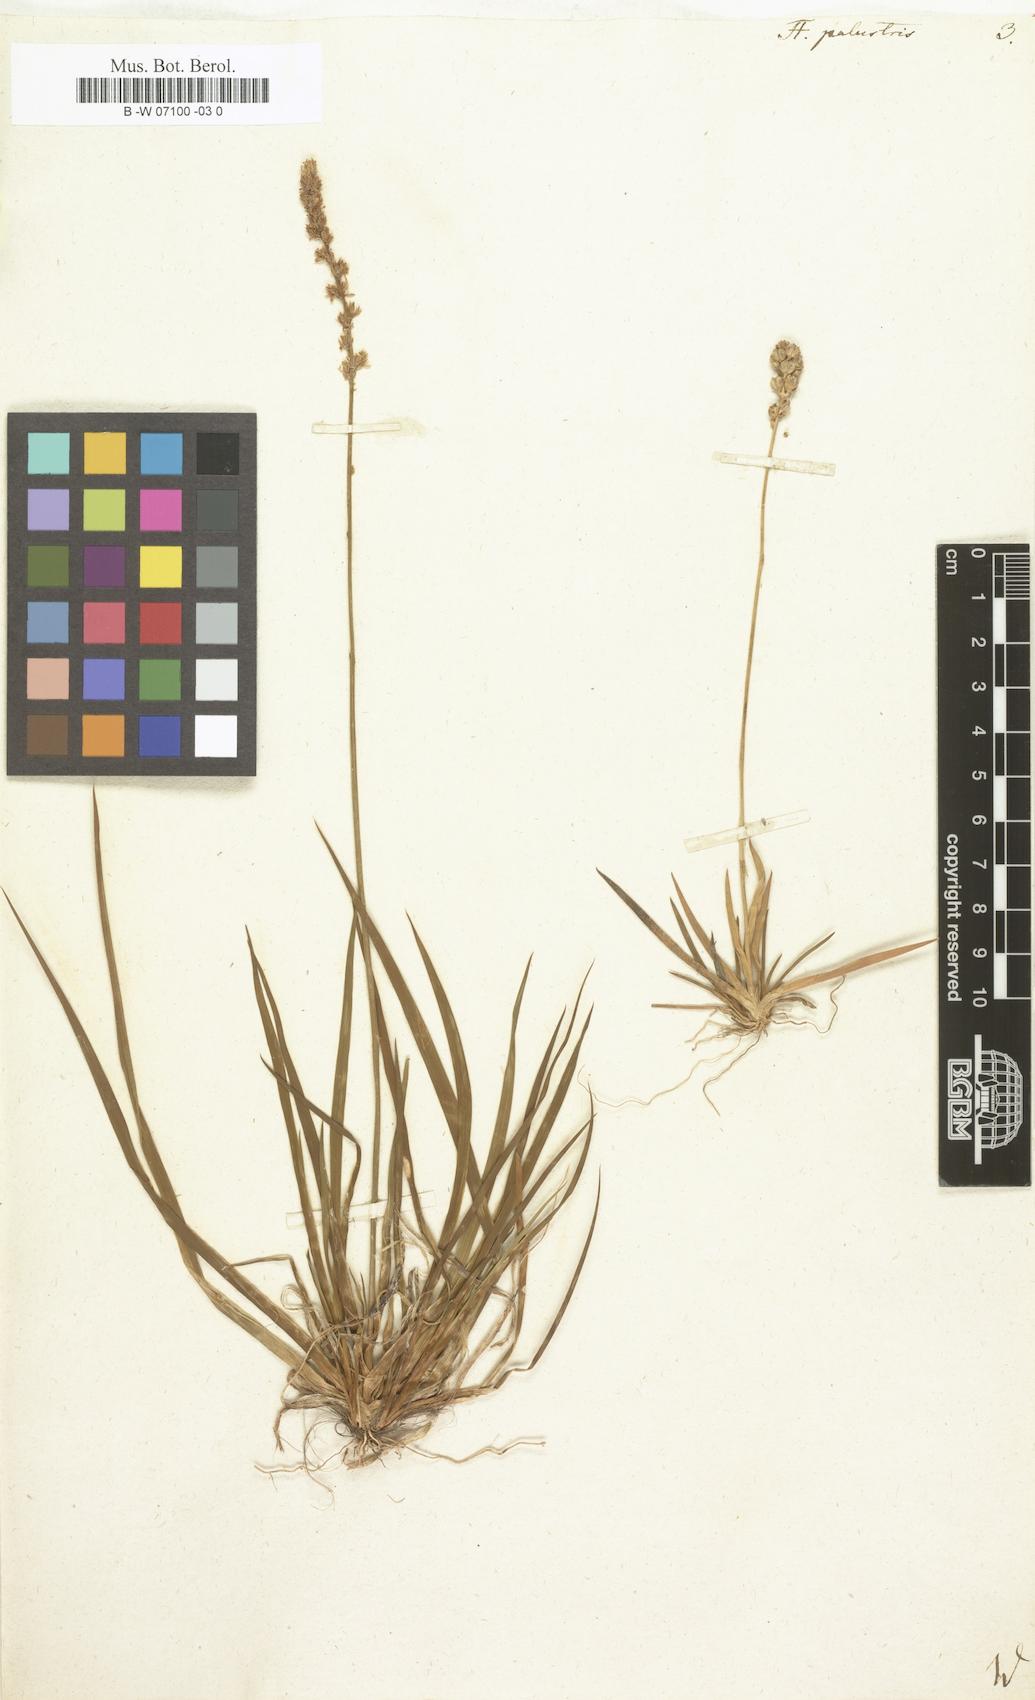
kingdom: Plantae
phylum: Tracheophyta
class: Liliopsida
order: Liliales
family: Melanthiaceae
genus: Tofieldia
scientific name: Tofieldia palustris
